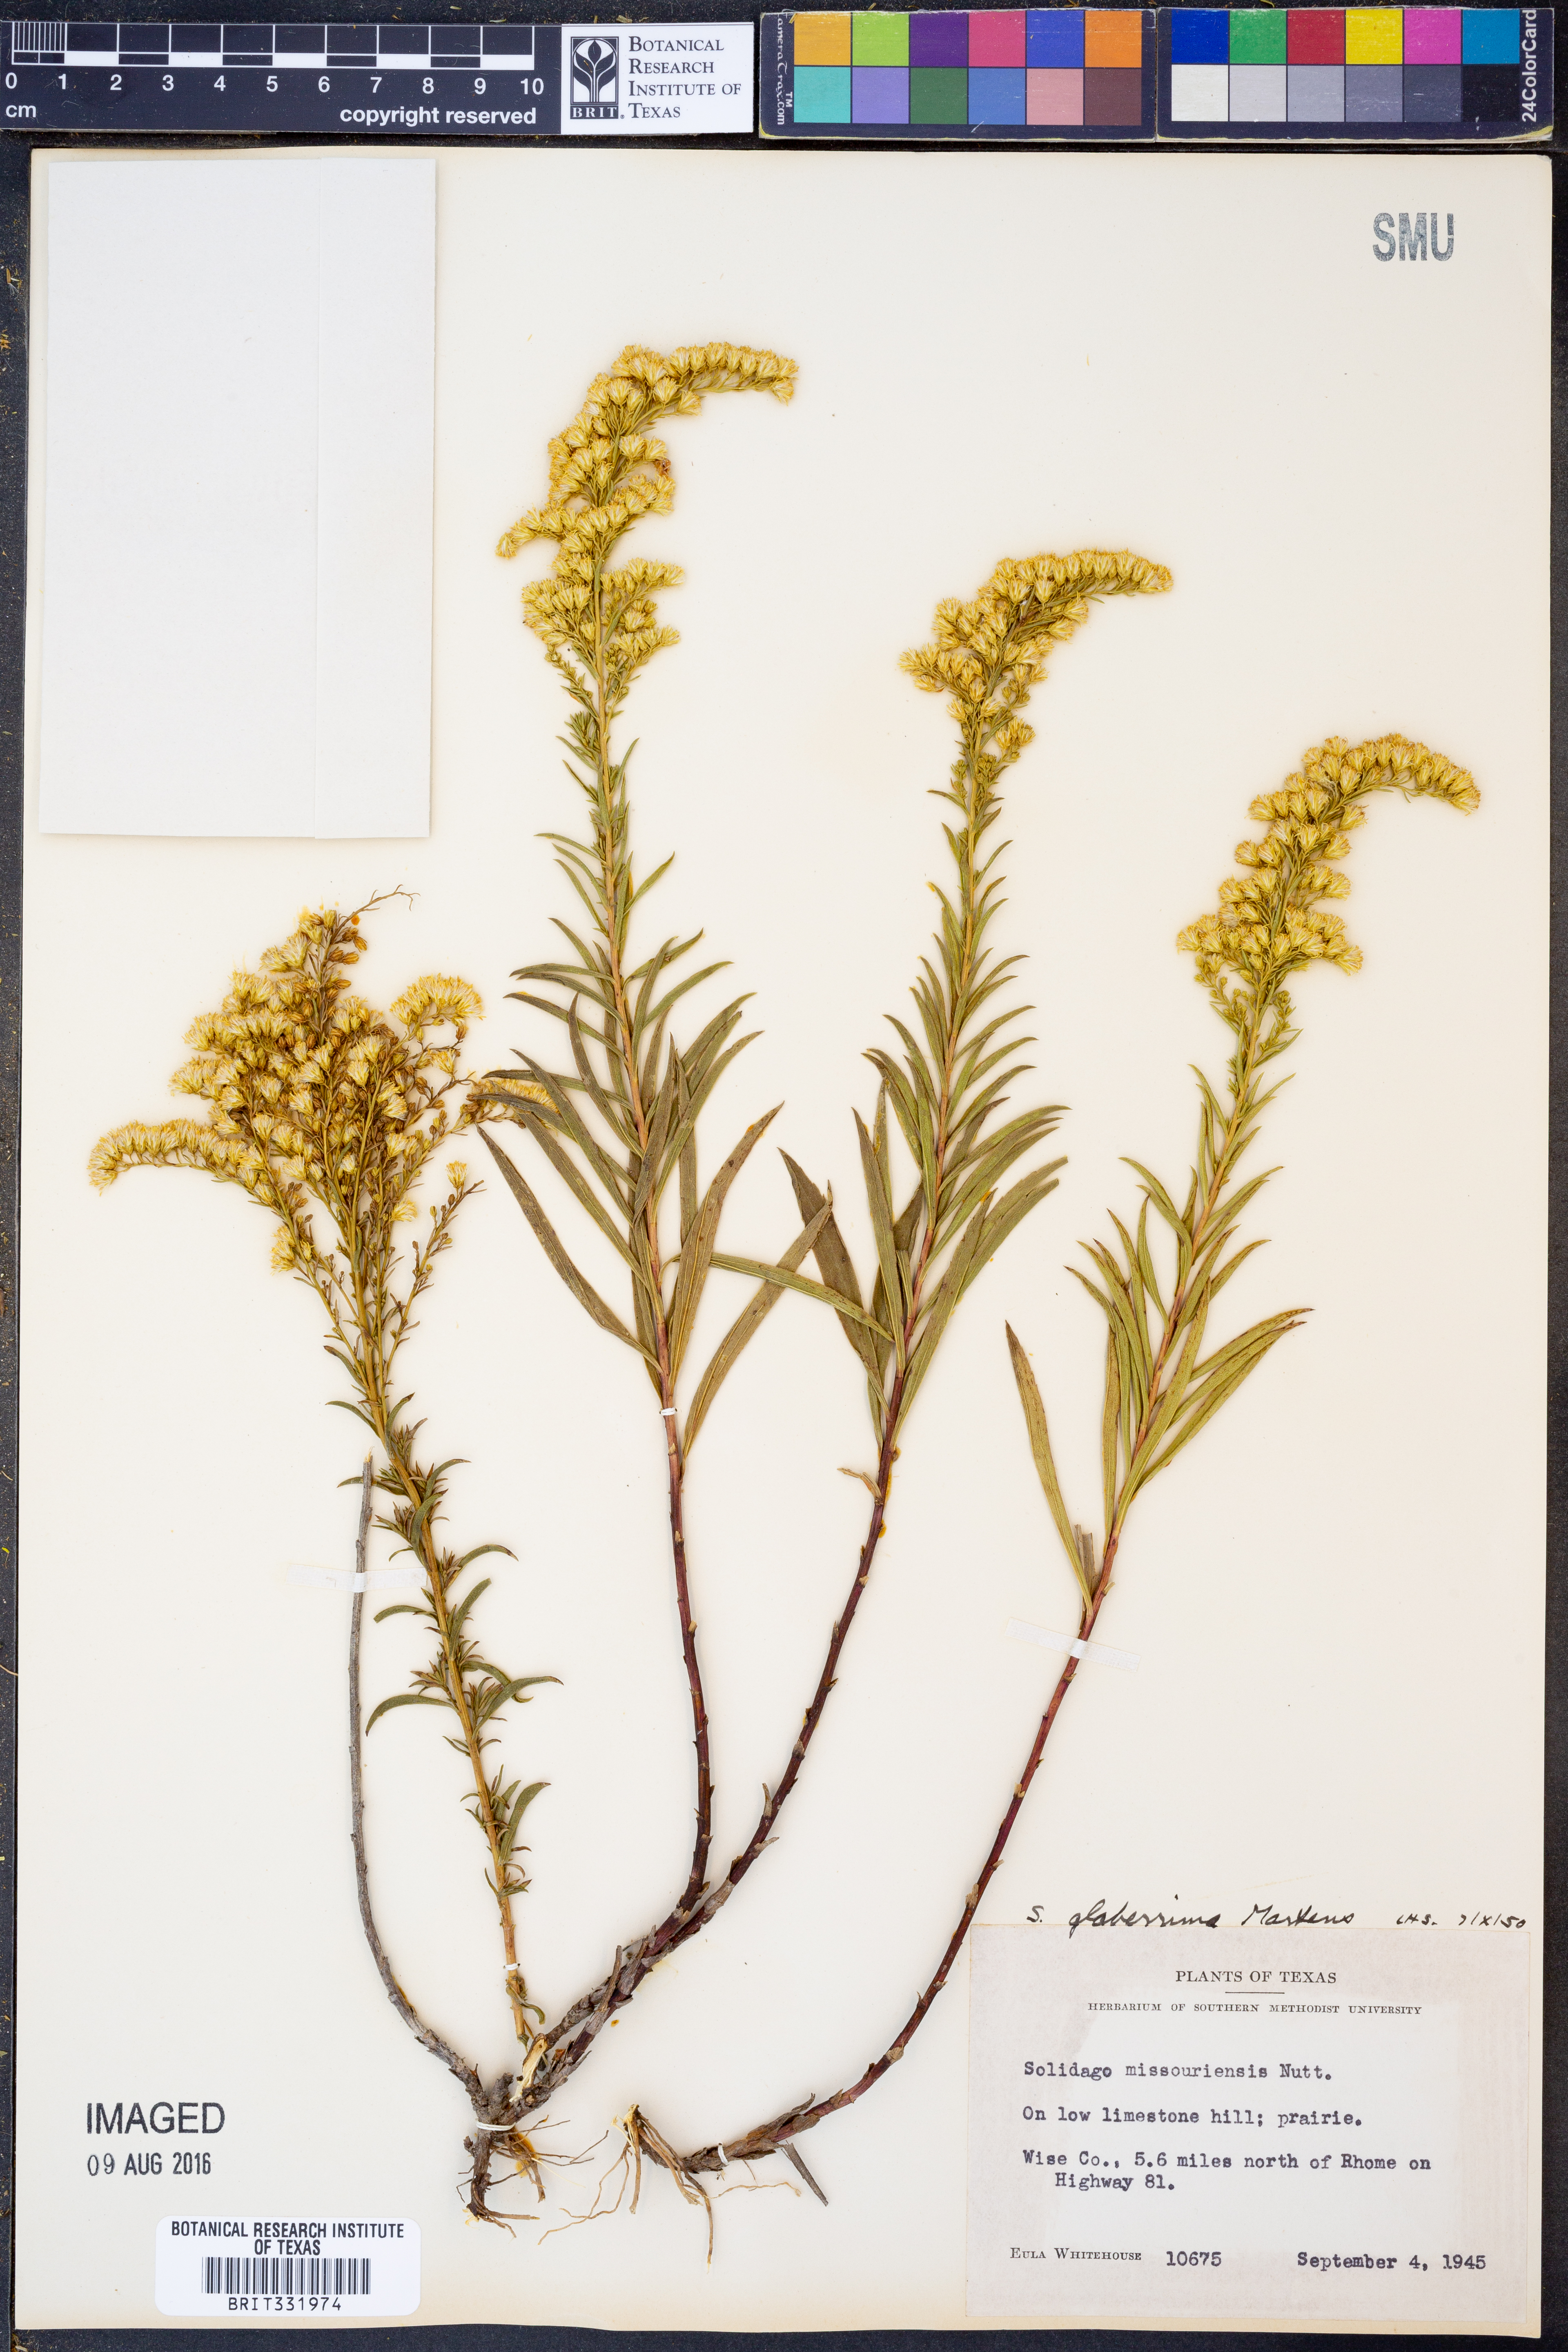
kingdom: Plantae
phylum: Tracheophyta
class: Magnoliopsida
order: Asterales
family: Asteraceae
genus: Solidago
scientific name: Solidago missouriensis
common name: Prairie goldenrod
